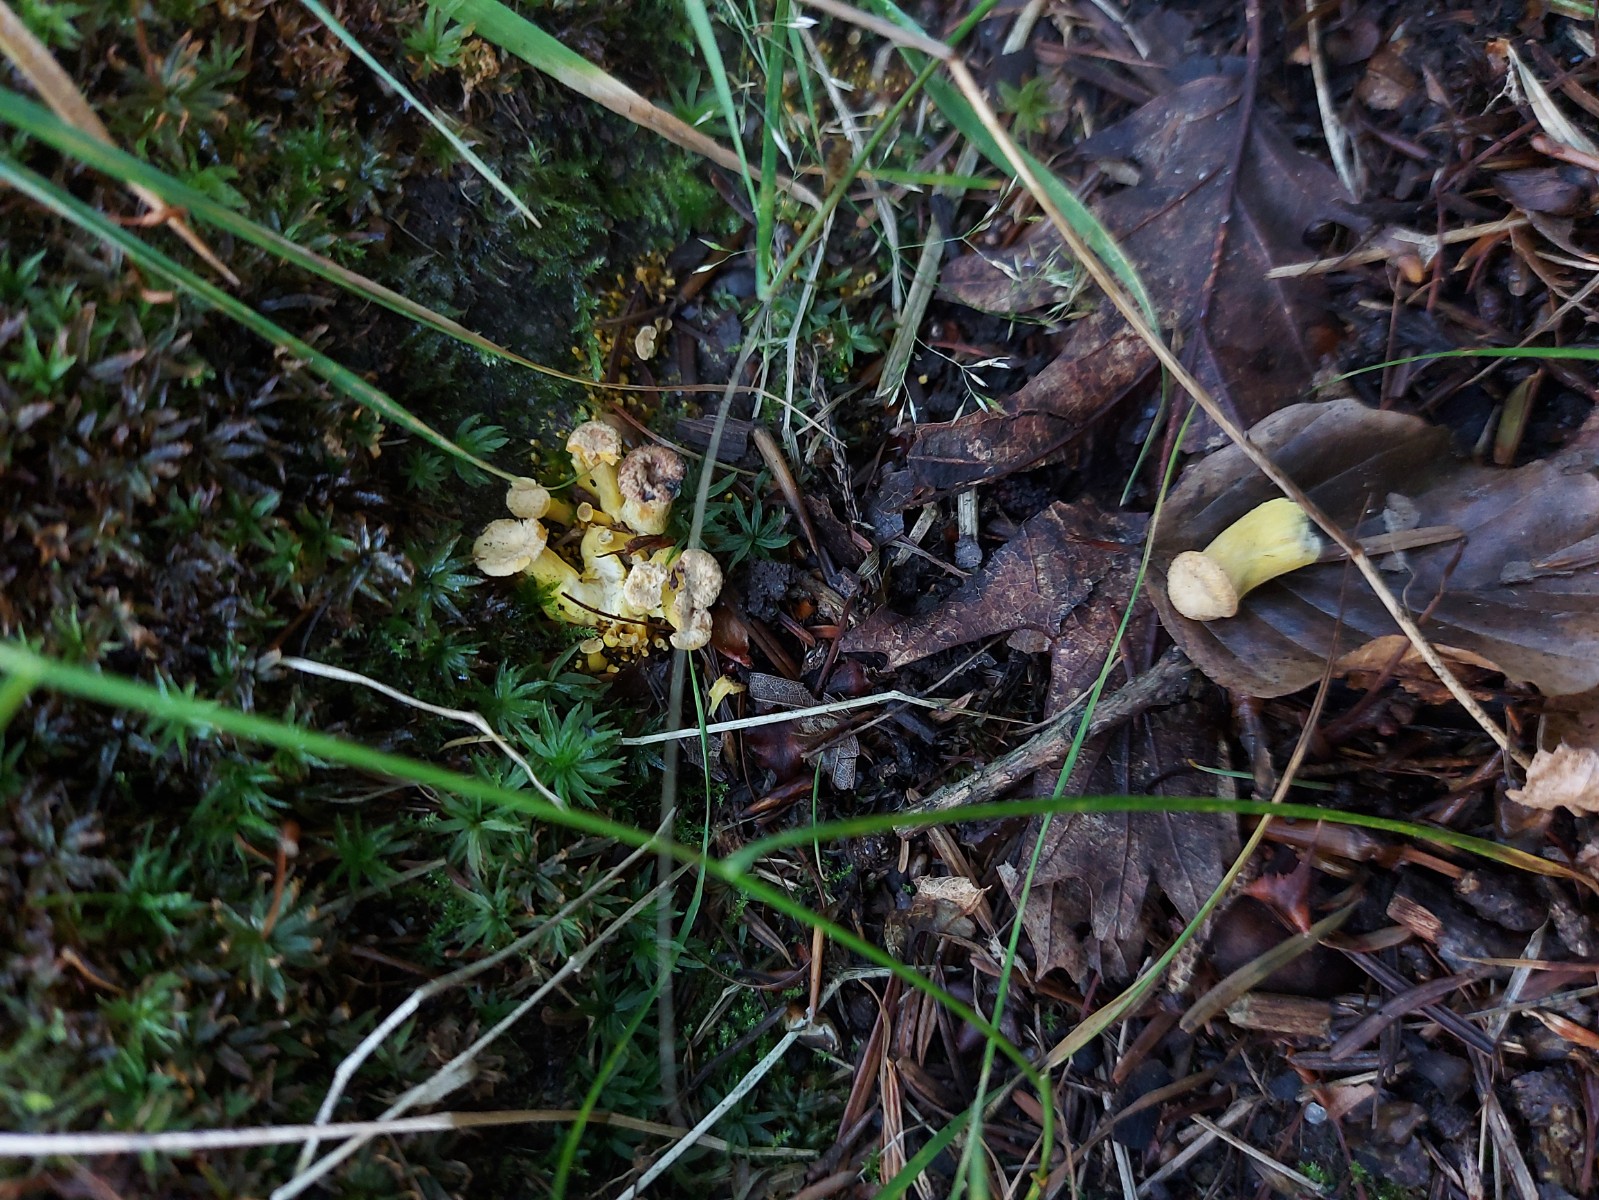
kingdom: Fungi
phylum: Basidiomycota
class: Agaricomycetes
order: Cantharellales
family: Hydnaceae
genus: Craterellus
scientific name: Craterellus
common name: kantarel
